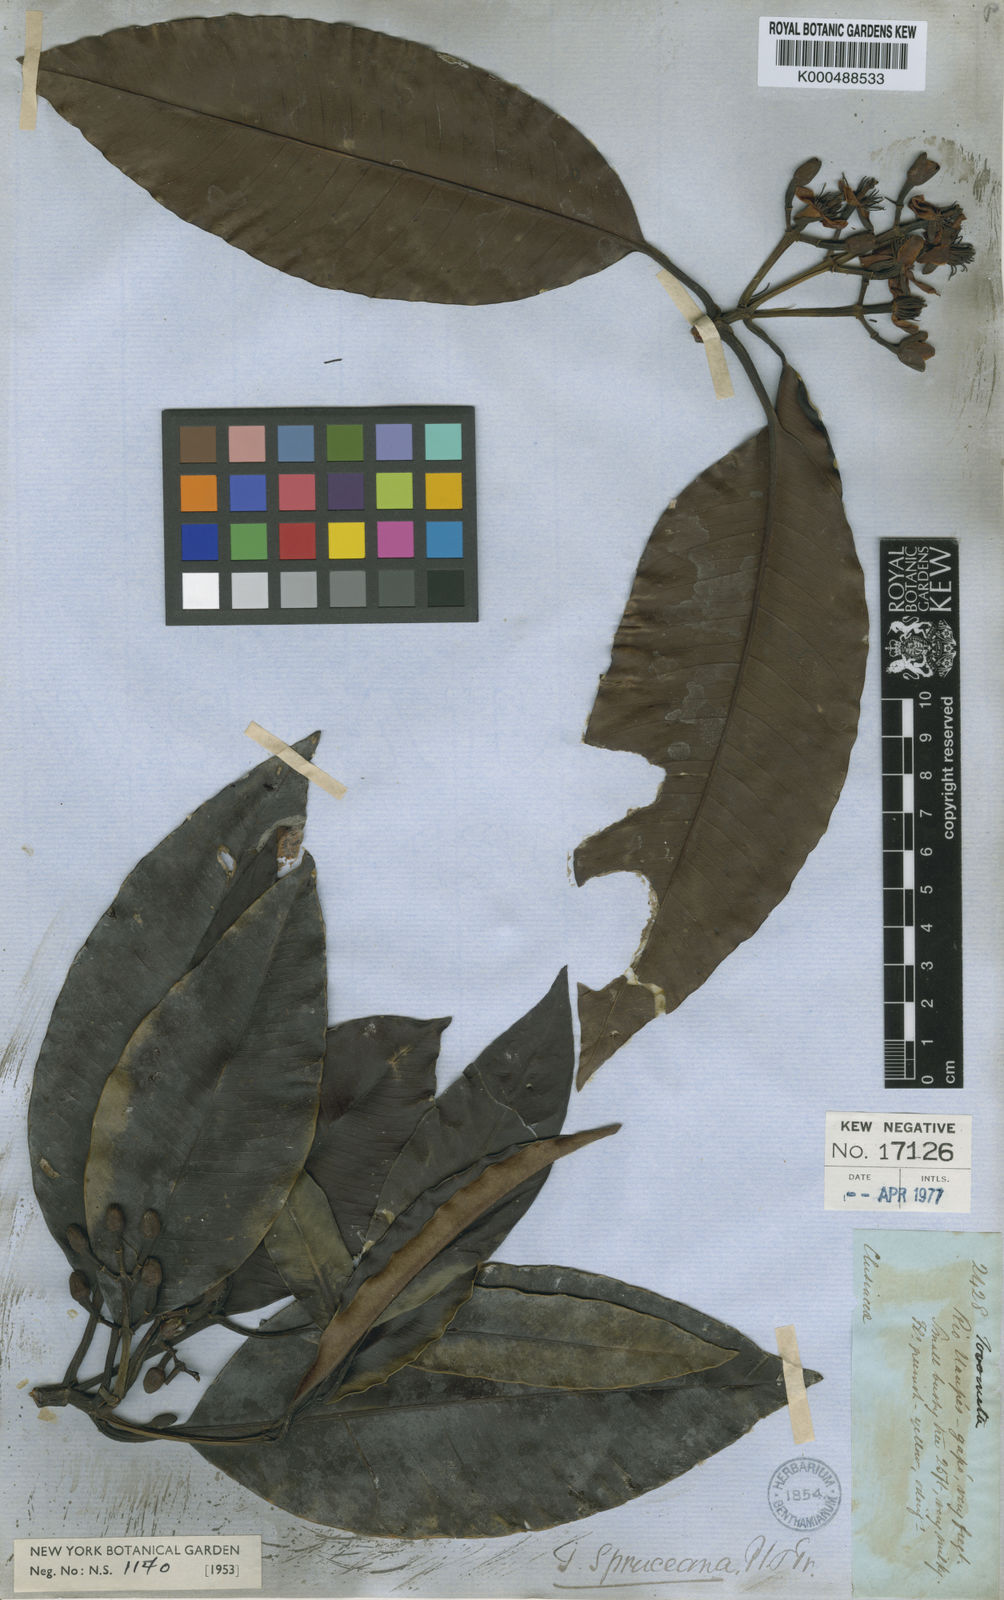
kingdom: Plantae
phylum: Tracheophyta
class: Magnoliopsida
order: Malpighiales
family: Clusiaceae
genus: Tovomita
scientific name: Tovomita spruceana
